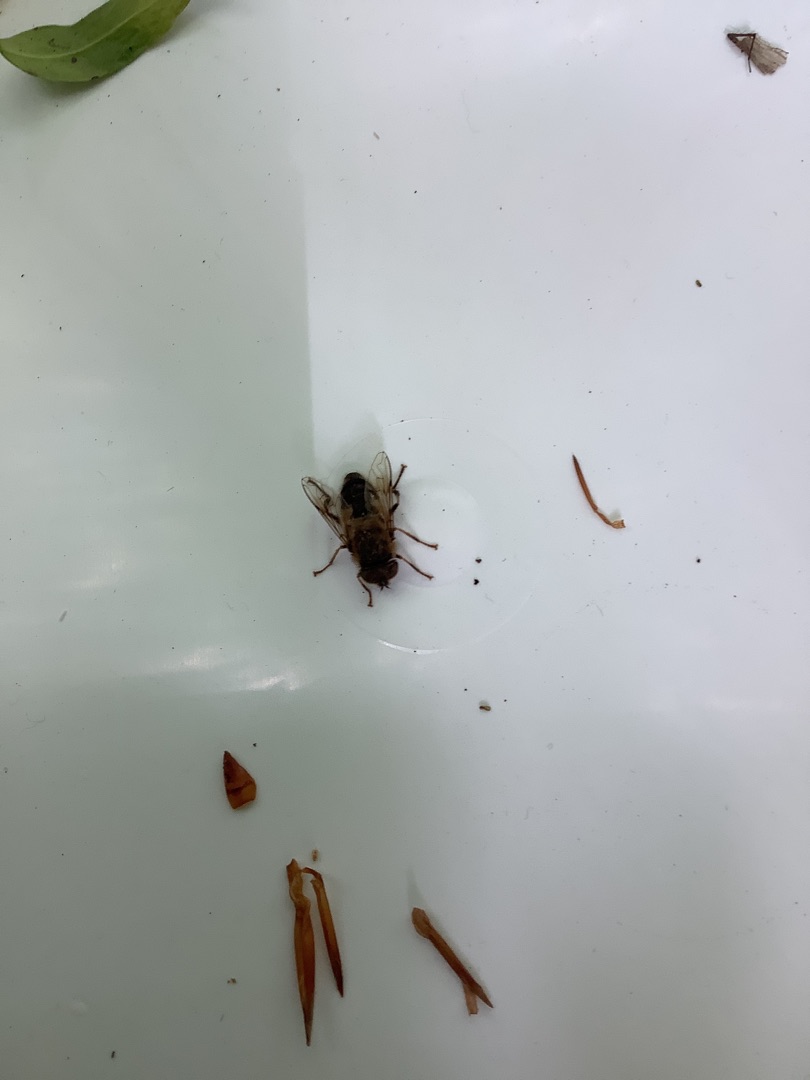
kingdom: Animalia
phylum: Arthropoda
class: Insecta
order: Diptera
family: Syrphidae
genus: Eristalis
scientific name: Eristalis pertinax
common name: Gulfodet dyndflue
